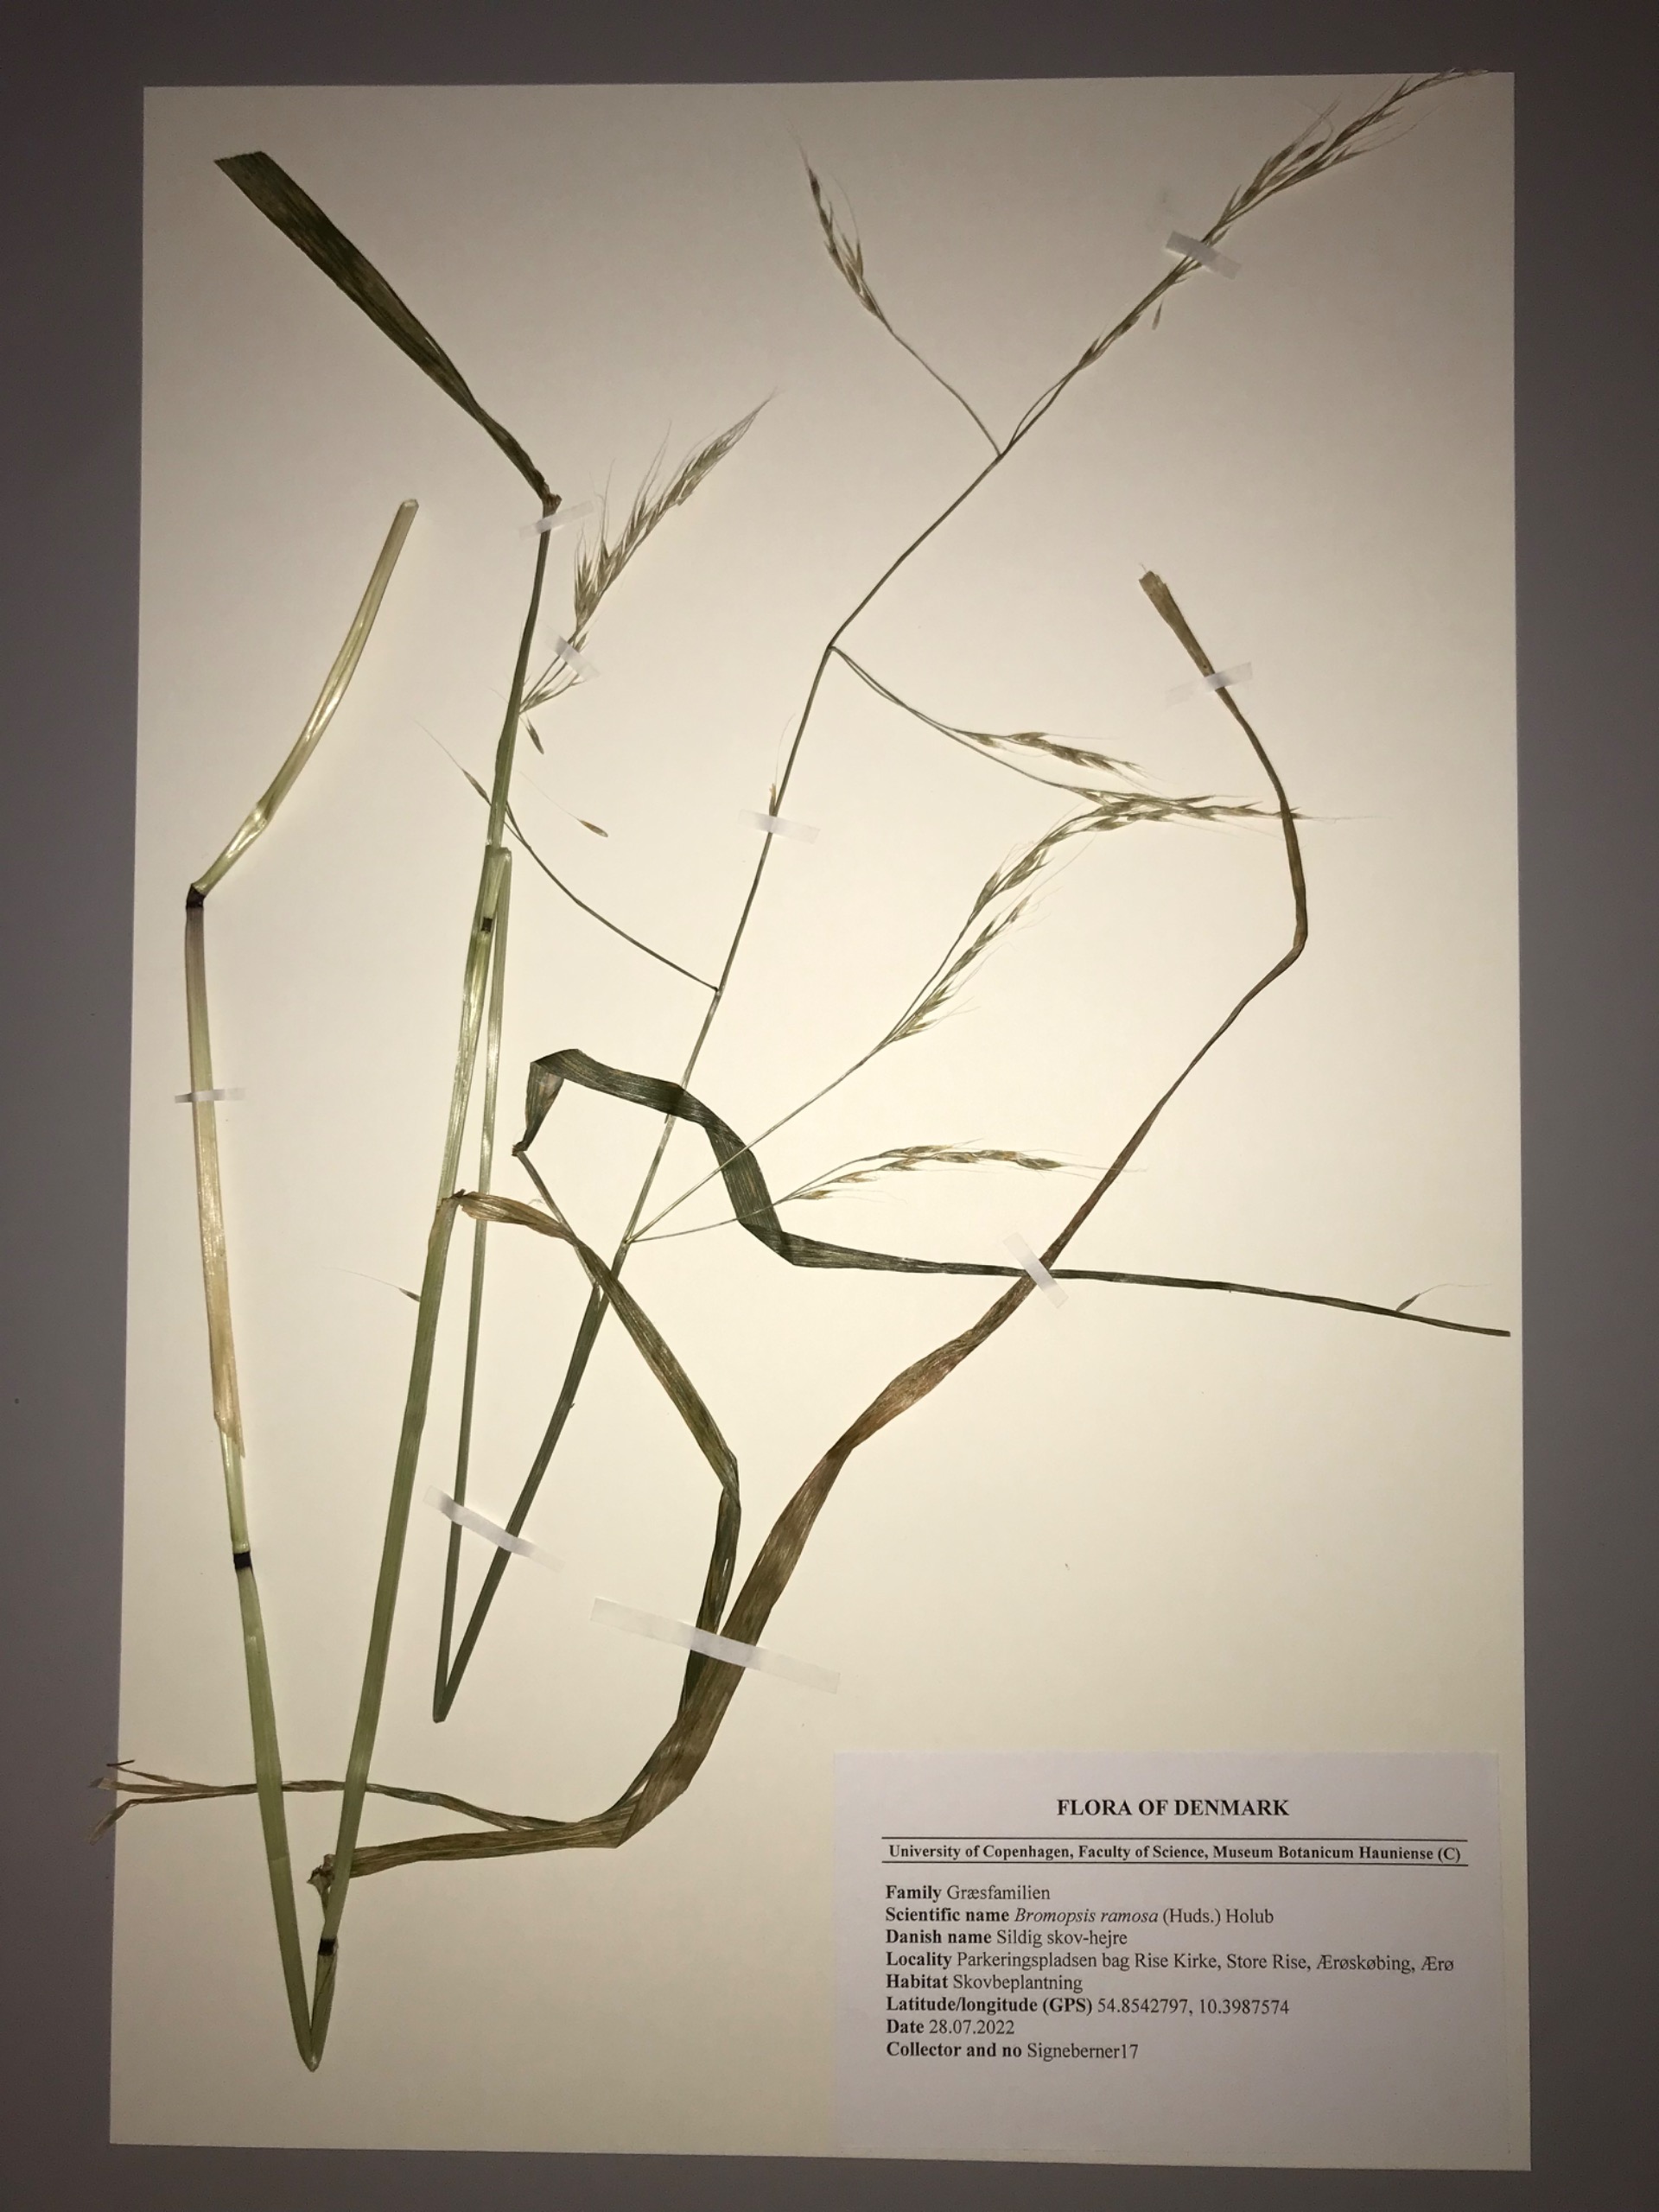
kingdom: Plantae
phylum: Tracheophyta
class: Liliopsida
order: Poales
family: Poaceae
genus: Lolium
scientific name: Lolium giganteum
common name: Kæmpe-svingel
